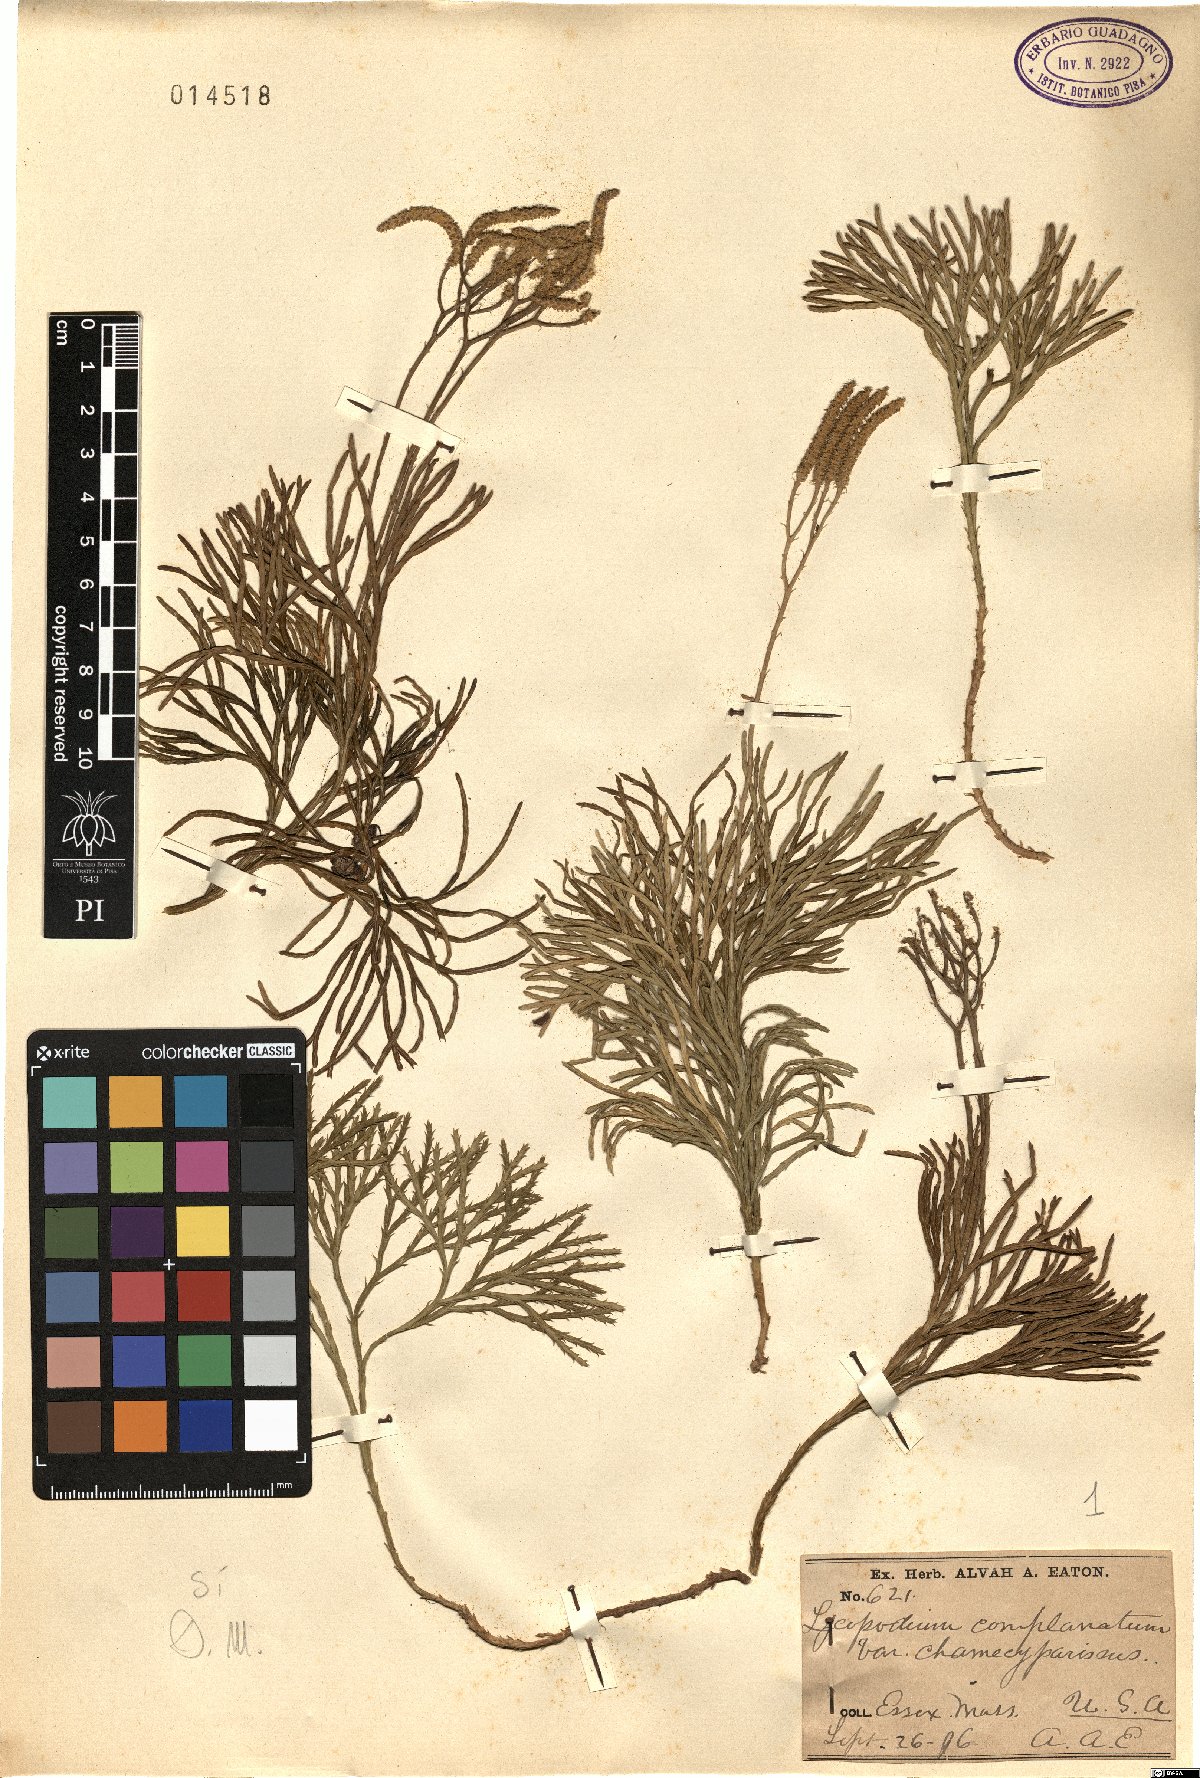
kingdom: Plantae
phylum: Tracheophyta
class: Lycopodiopsida
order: Lycopodiales
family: Lycopodiaceae
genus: Diphasiastrum
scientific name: Diphasiastrum tristachyum
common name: Blue ground-cedar
